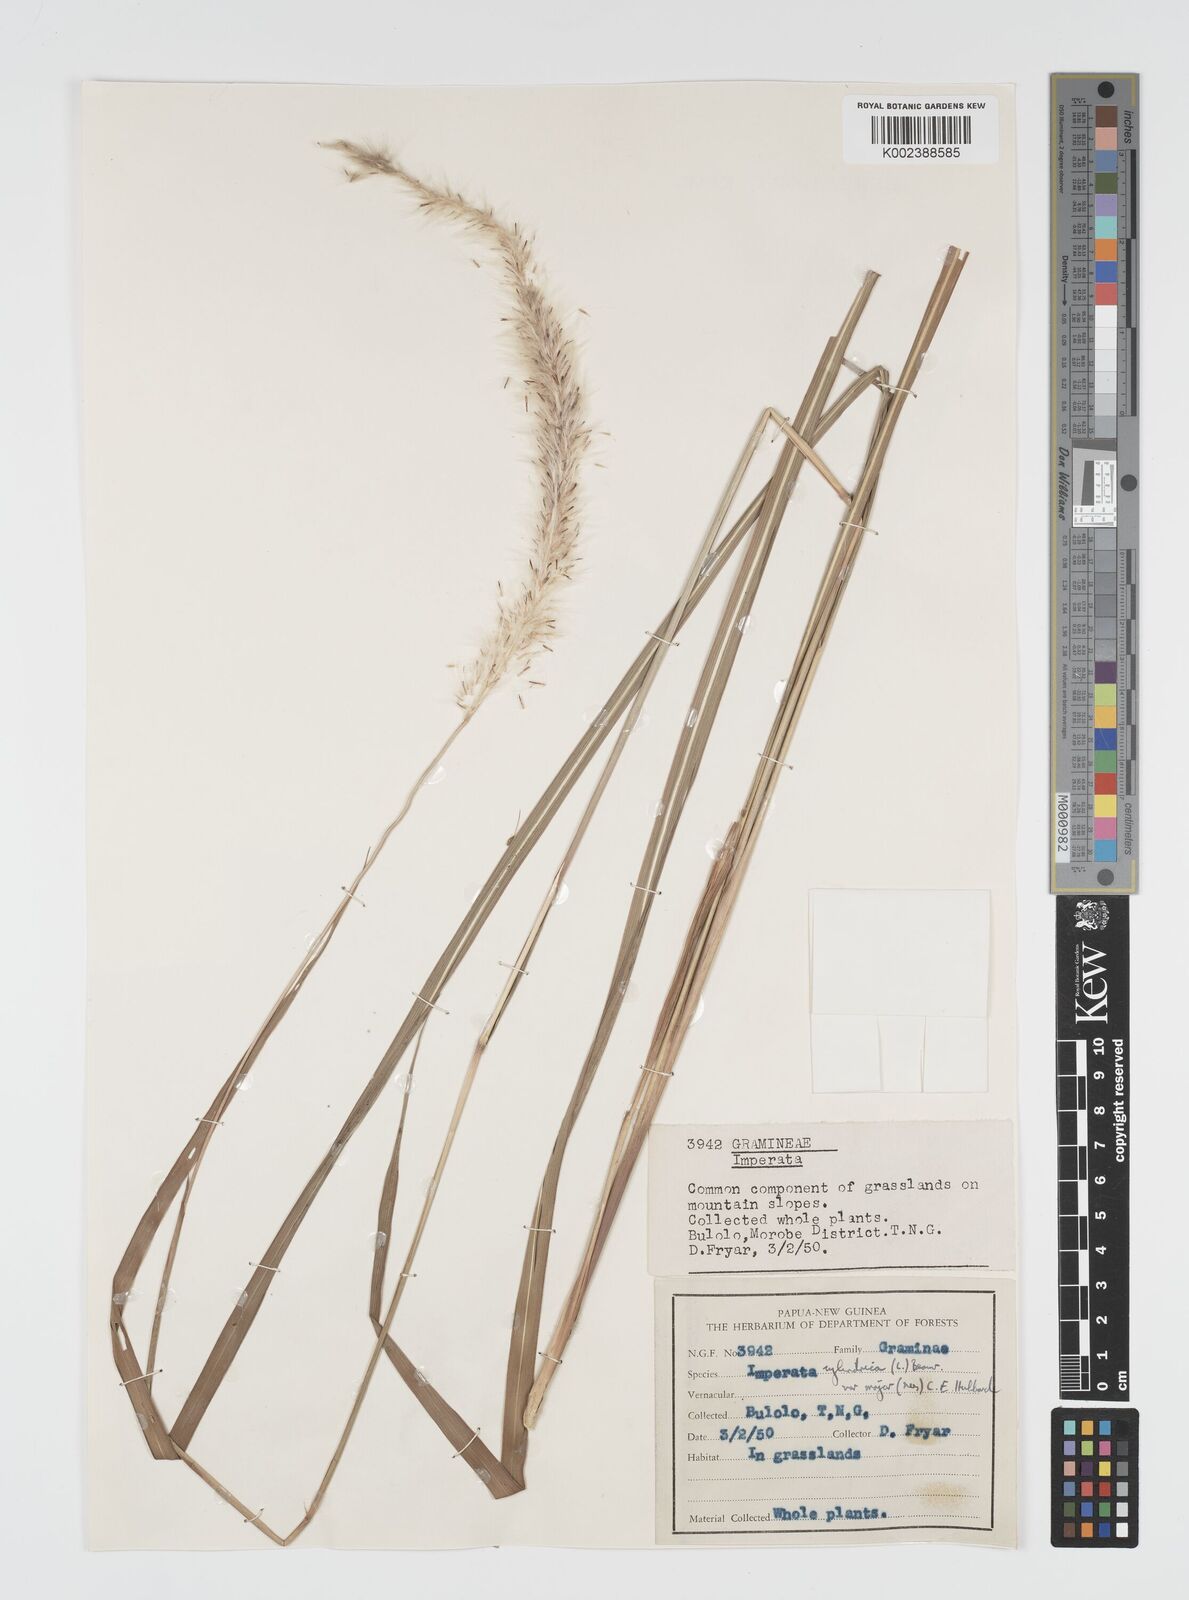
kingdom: Plantae
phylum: Tracheophyta
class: Liliopsida
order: Poales
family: Poaceae
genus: Imperata
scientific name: Imperata cylindrica
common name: Cogongrass
